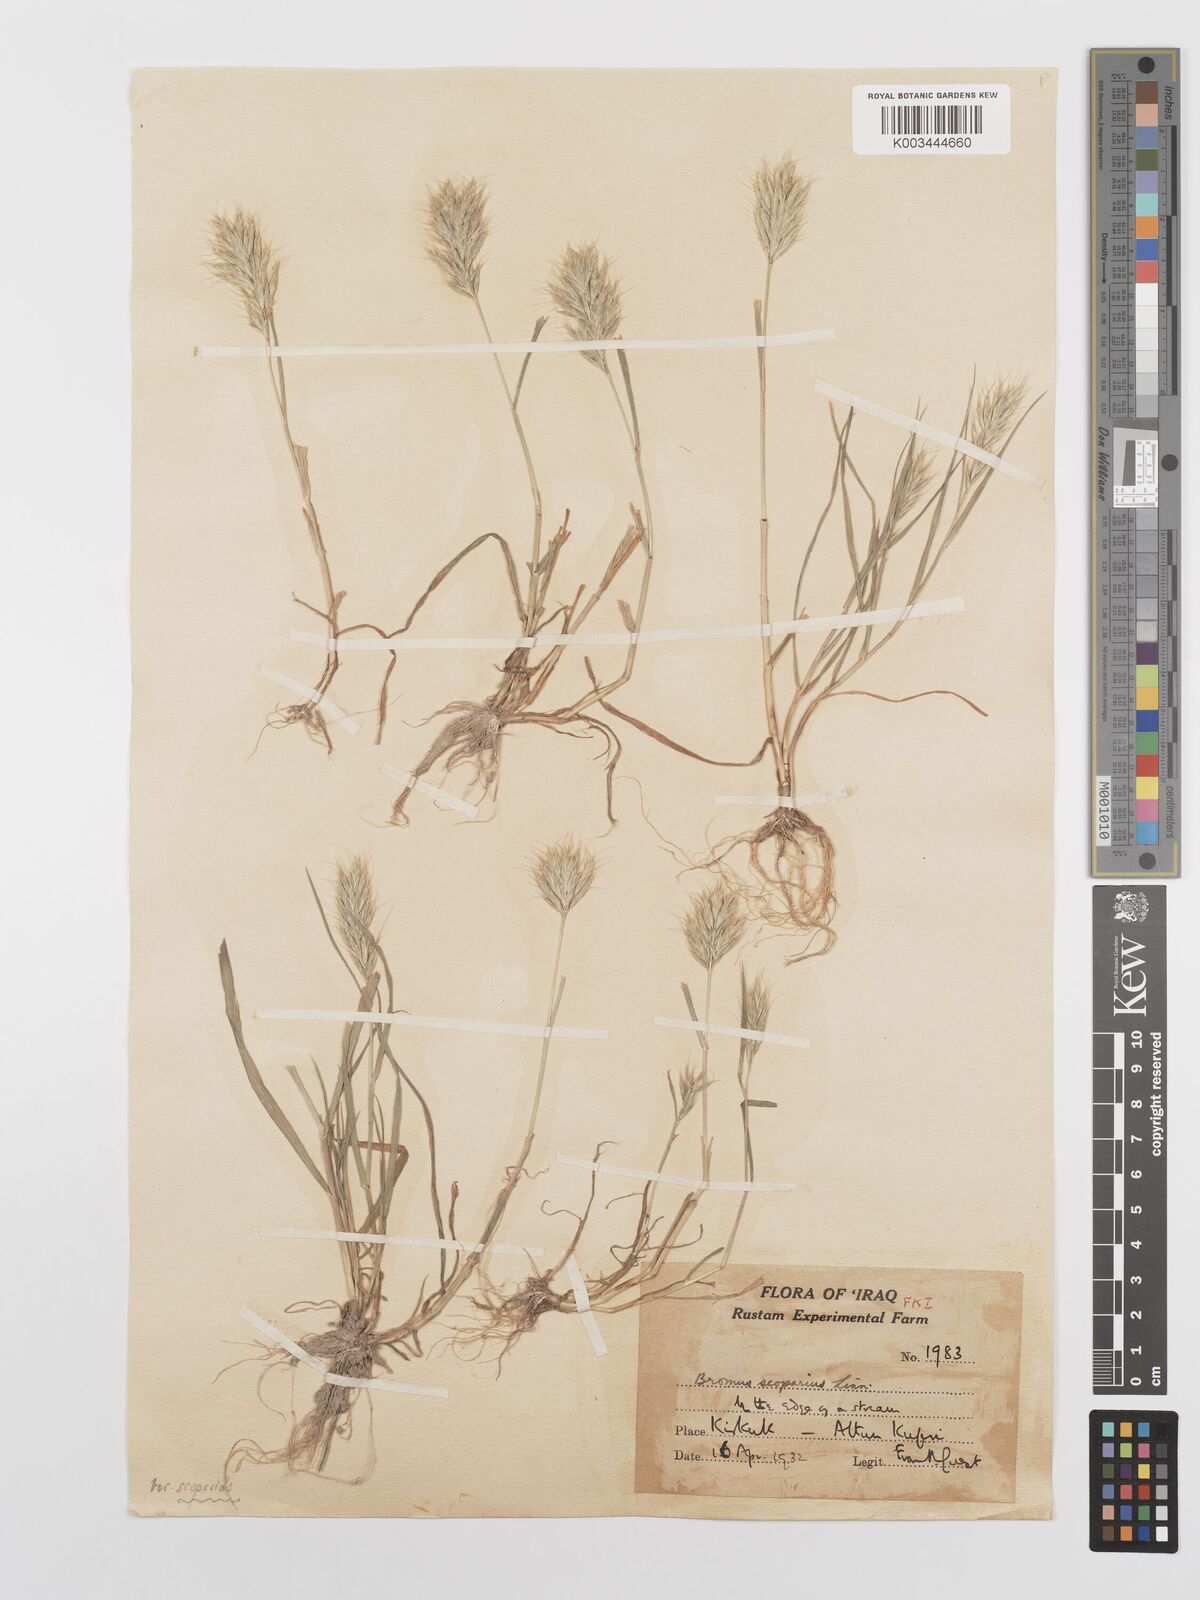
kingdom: Plantae
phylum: Tracheophyta
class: Liliopsida
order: Poales
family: Poaceae
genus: Bromus
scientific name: Bromus scoparius
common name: Broom brome
